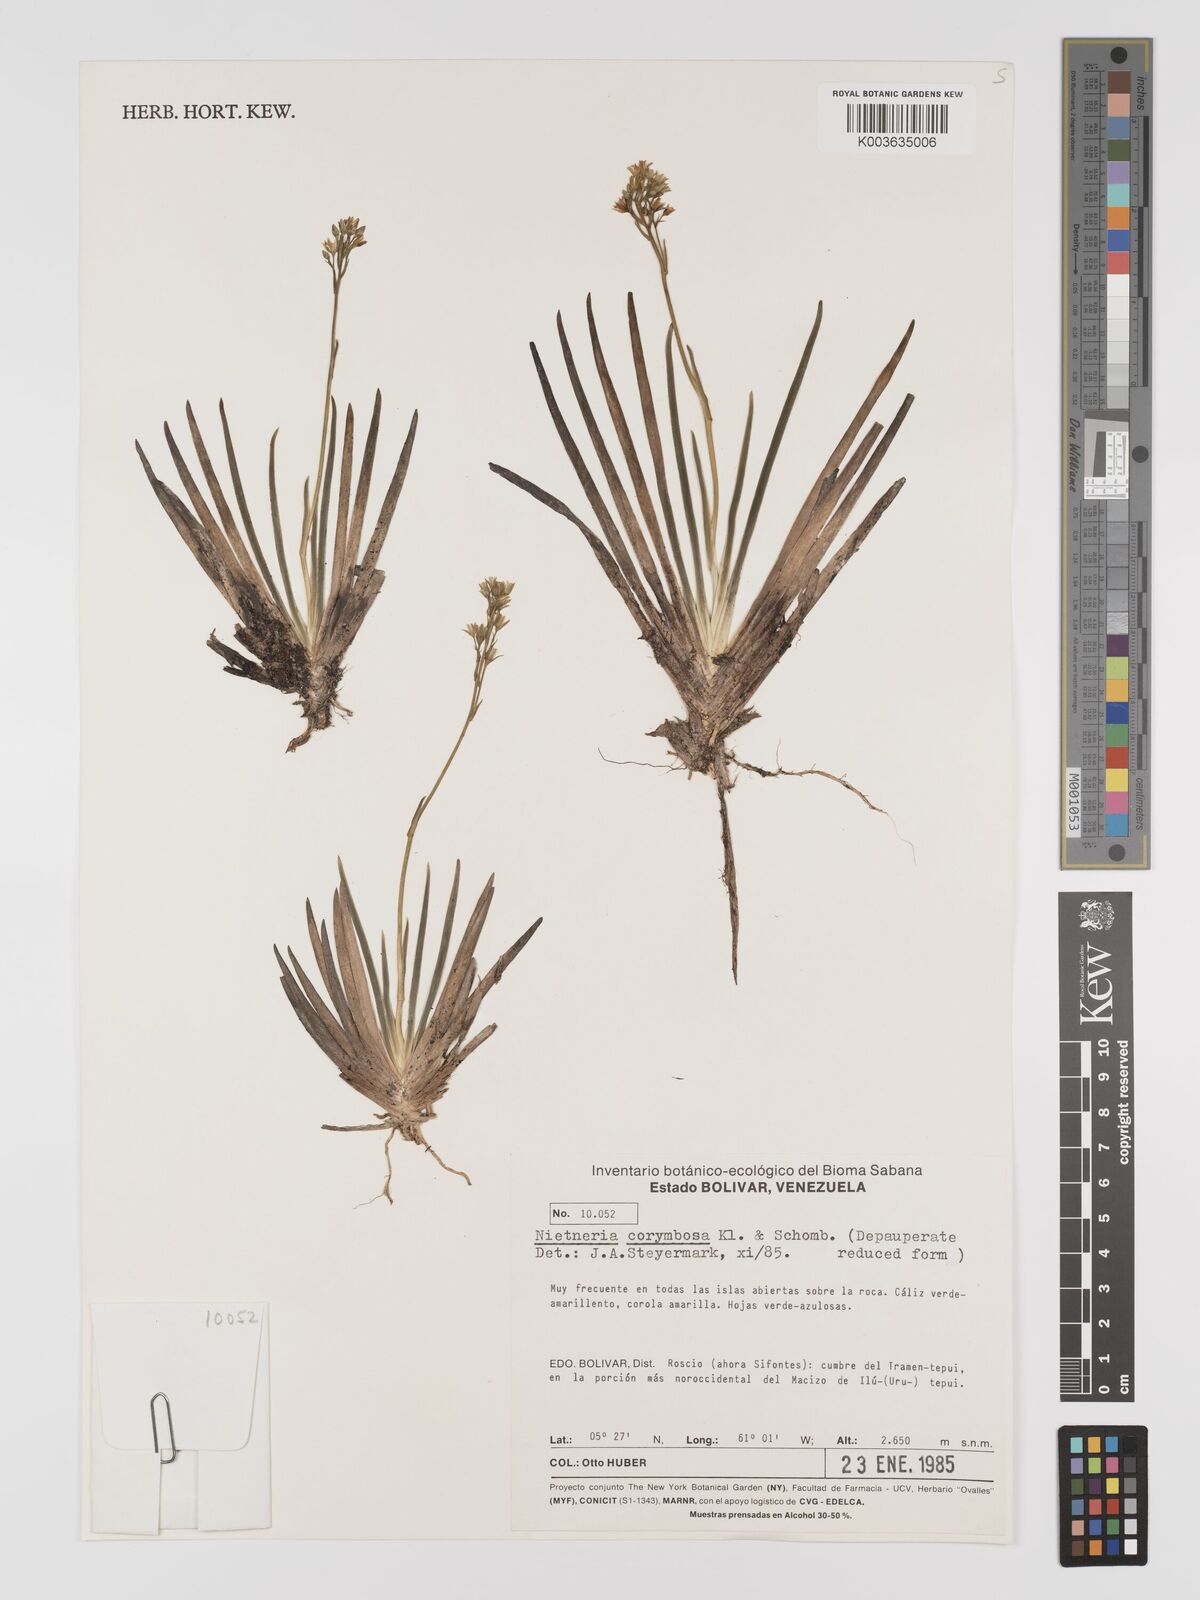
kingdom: Plantae
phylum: Tracheophyta
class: Liliopsida
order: Dioscoreales
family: Nartheciaceae
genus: Nietneria
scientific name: Nietneria corymbosa
